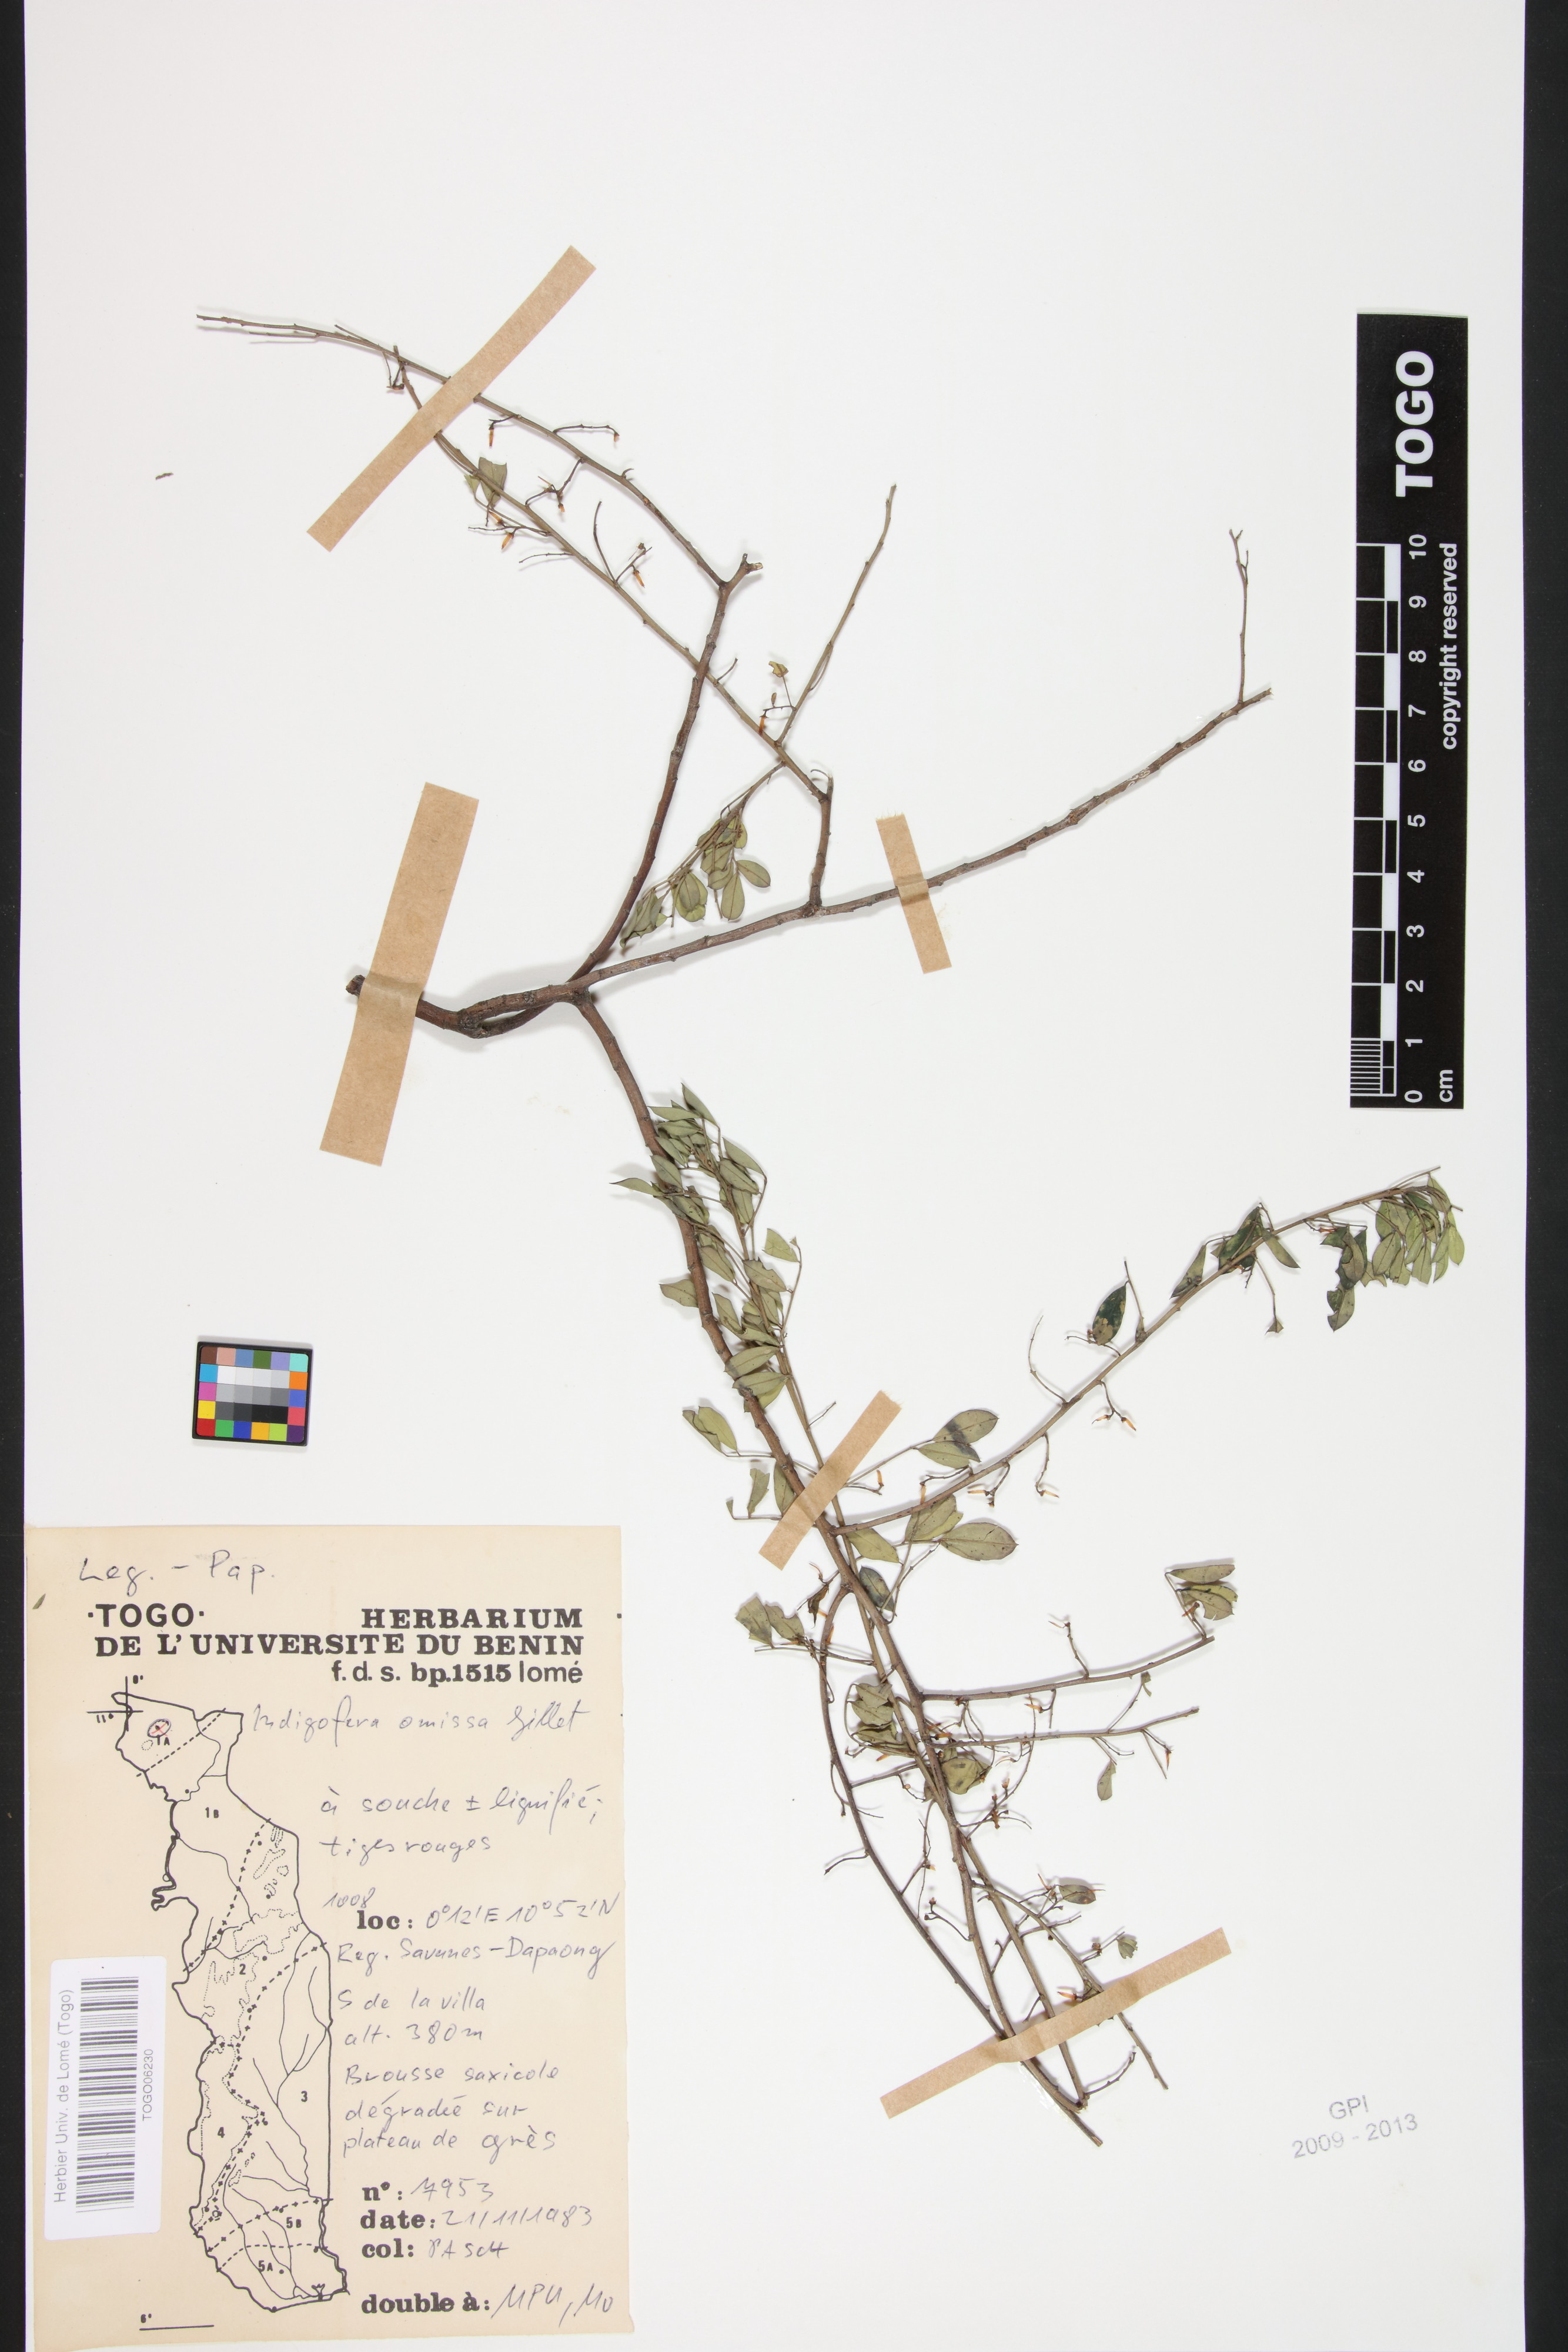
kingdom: Plantae
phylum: Tracheophyta
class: Magnoliopsida
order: Fabales
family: Fabaceae
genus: Indigofera
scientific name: Indigofera omissa
